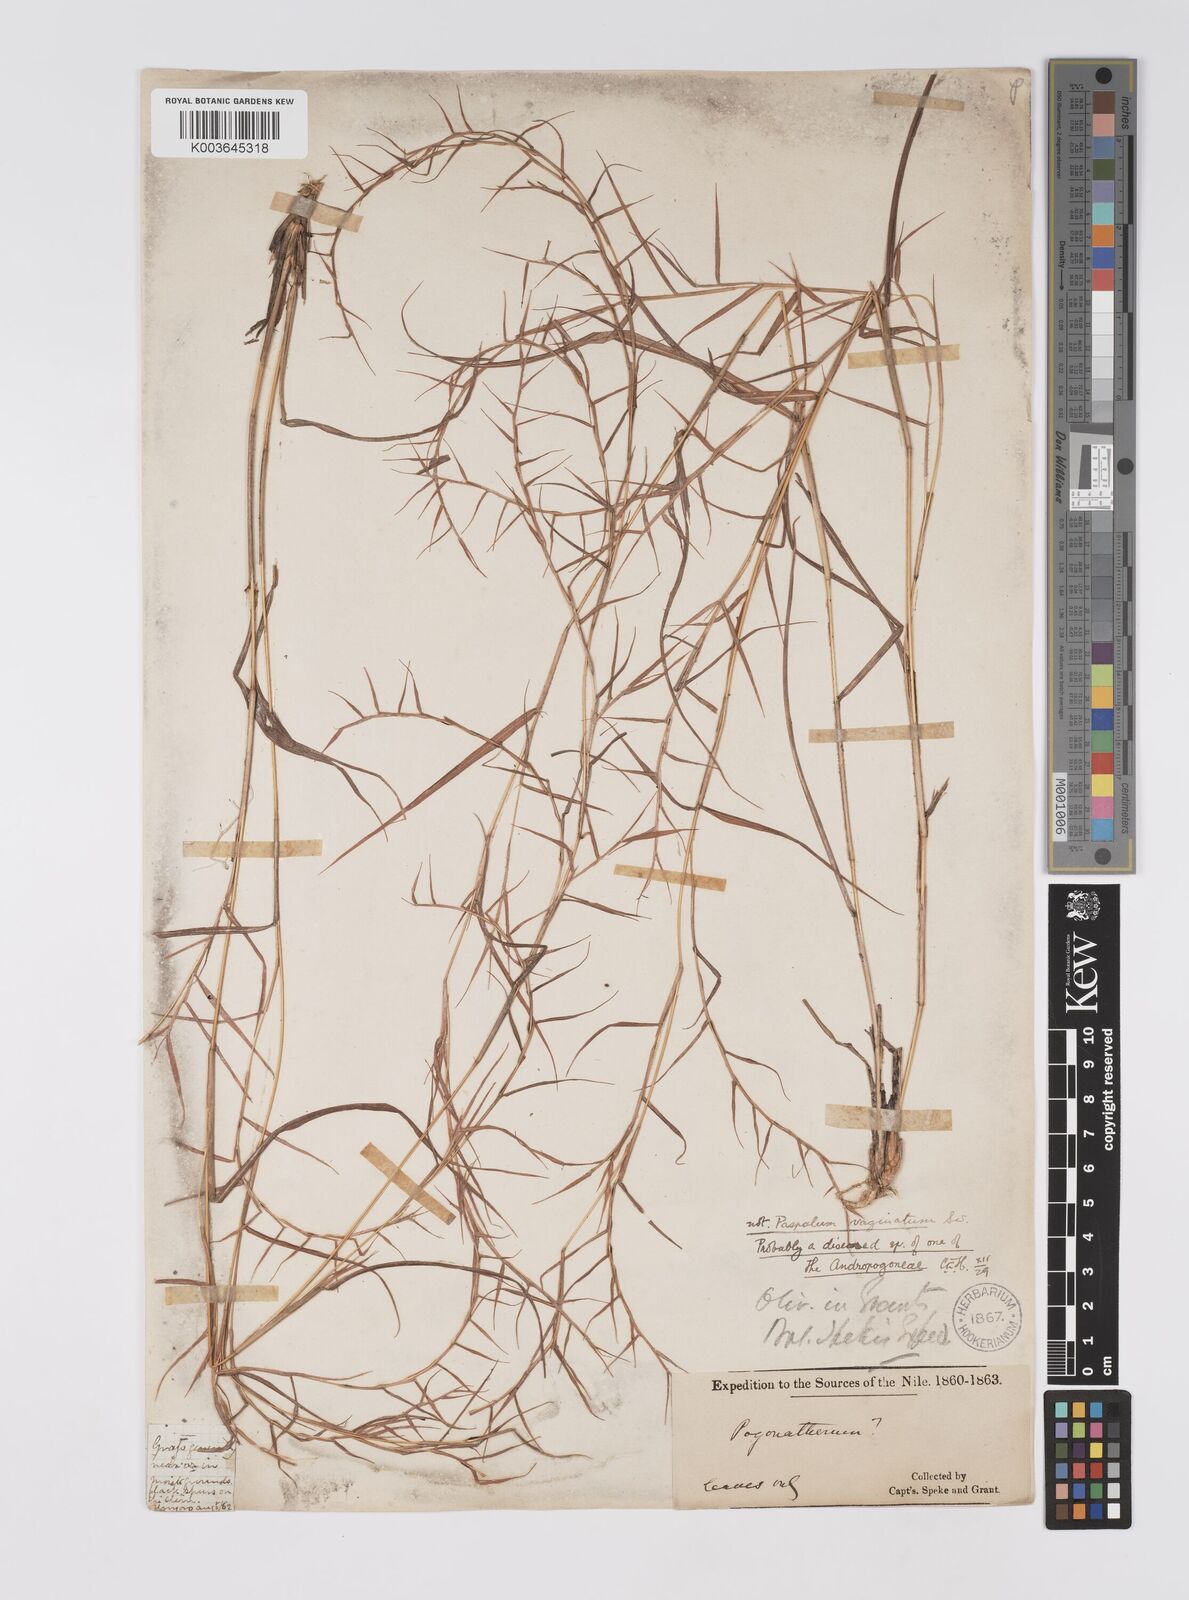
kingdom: Plantae
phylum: Tracheophyta
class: Liliopsida
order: Poales
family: Poaceae
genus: Pogonatherum
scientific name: Pogonatherum
